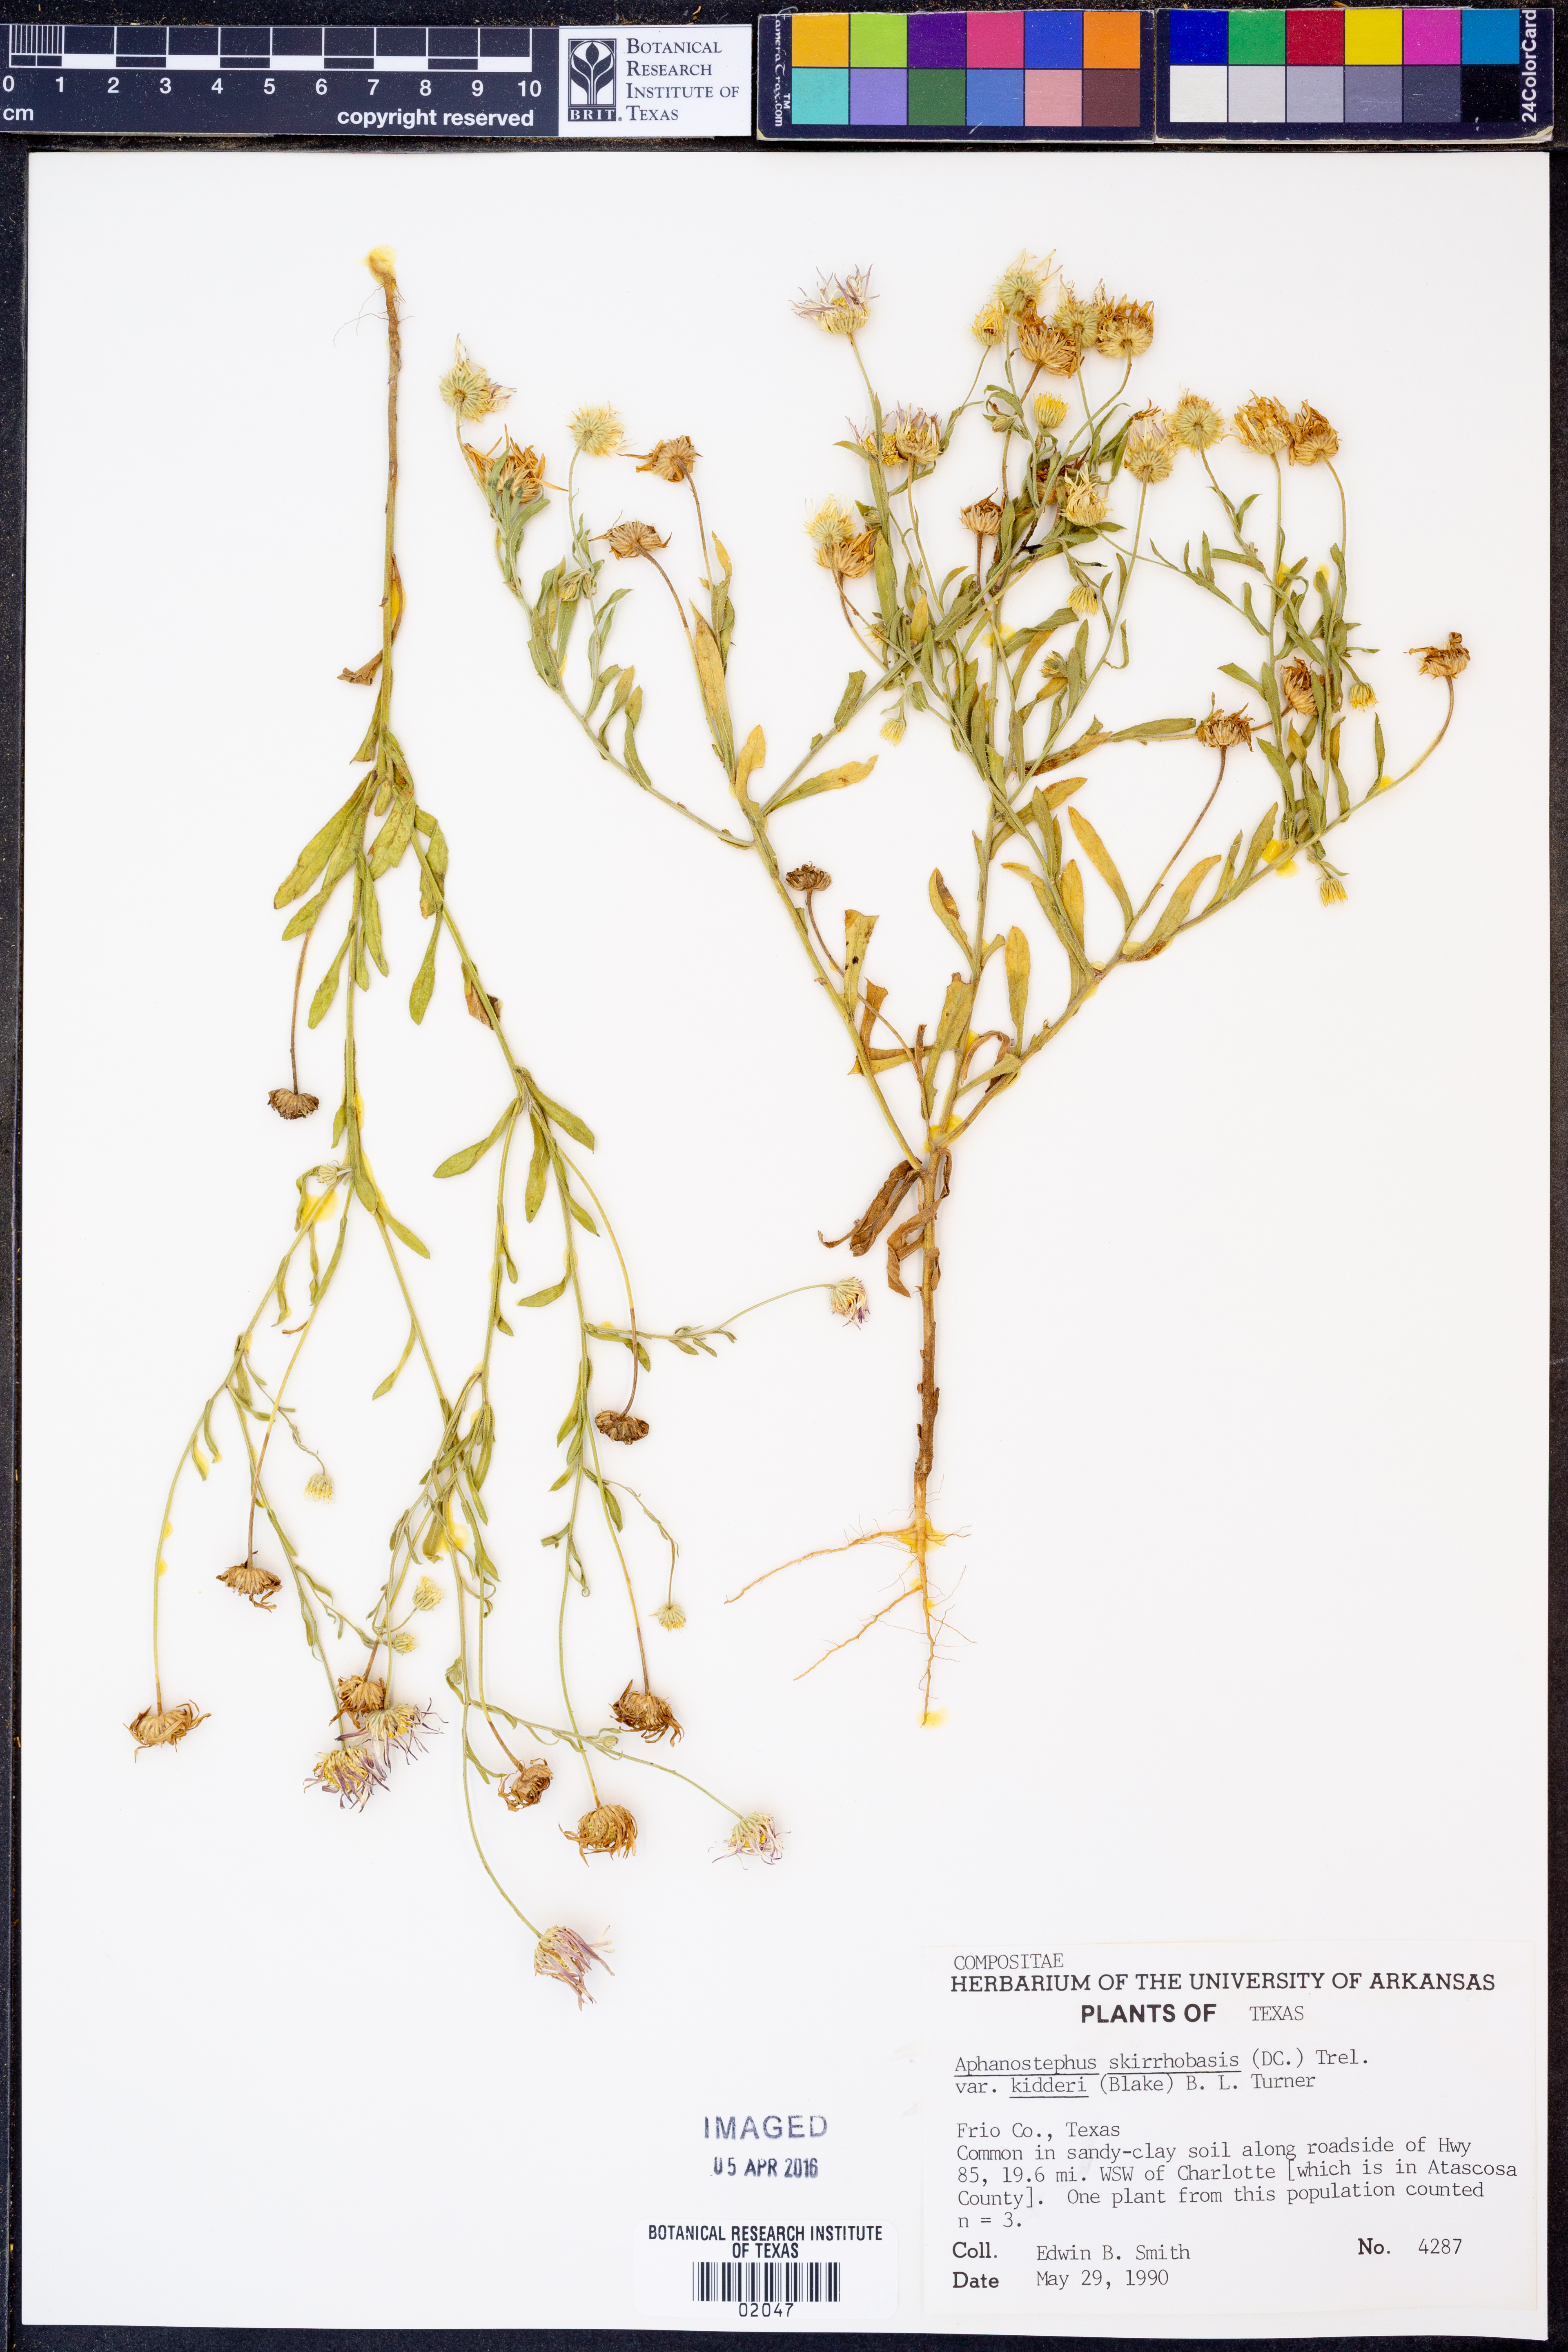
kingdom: Plantae
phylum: Tracheophyta
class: Magnoliopsida
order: Asterales
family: Asteraceae
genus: Aphanostephus
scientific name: Aphanostephus skirrhobasis
